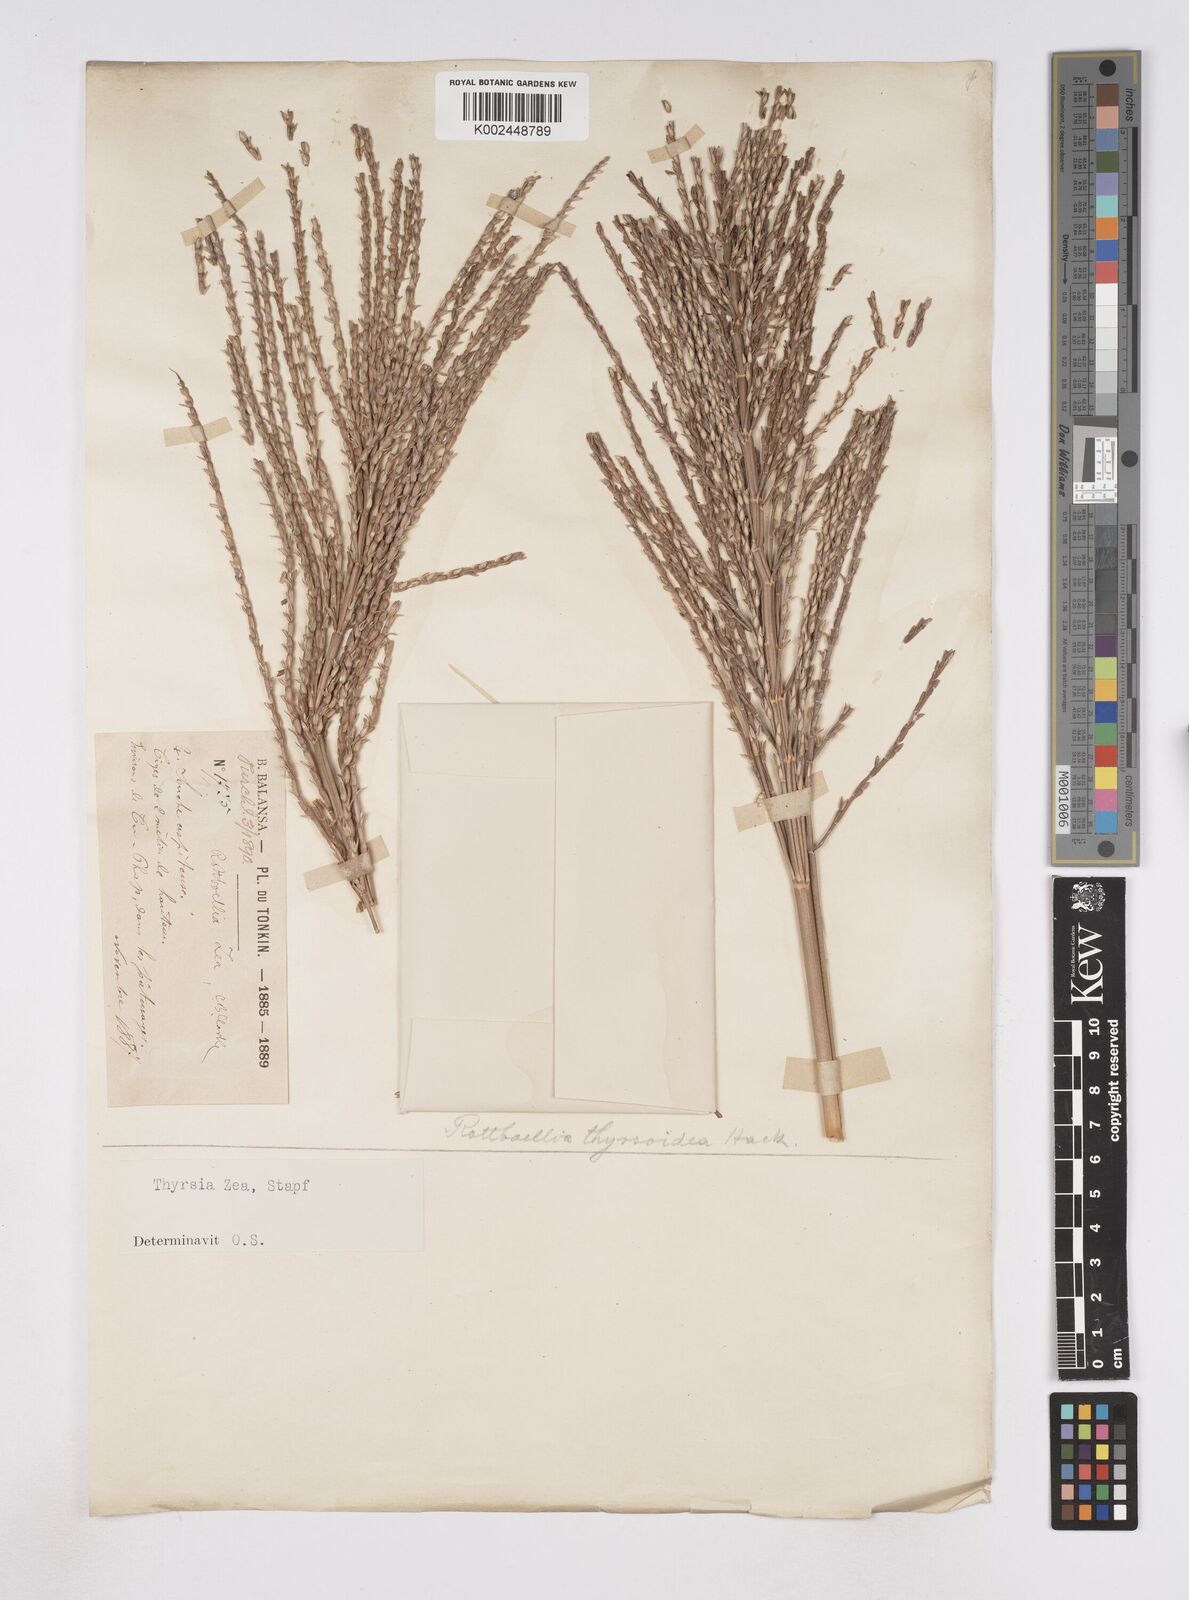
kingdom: Plantae
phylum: Tracheophyta
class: Liliopsida
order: Poales
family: Poaceae
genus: Thyrsia
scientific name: Thyrsia zea
